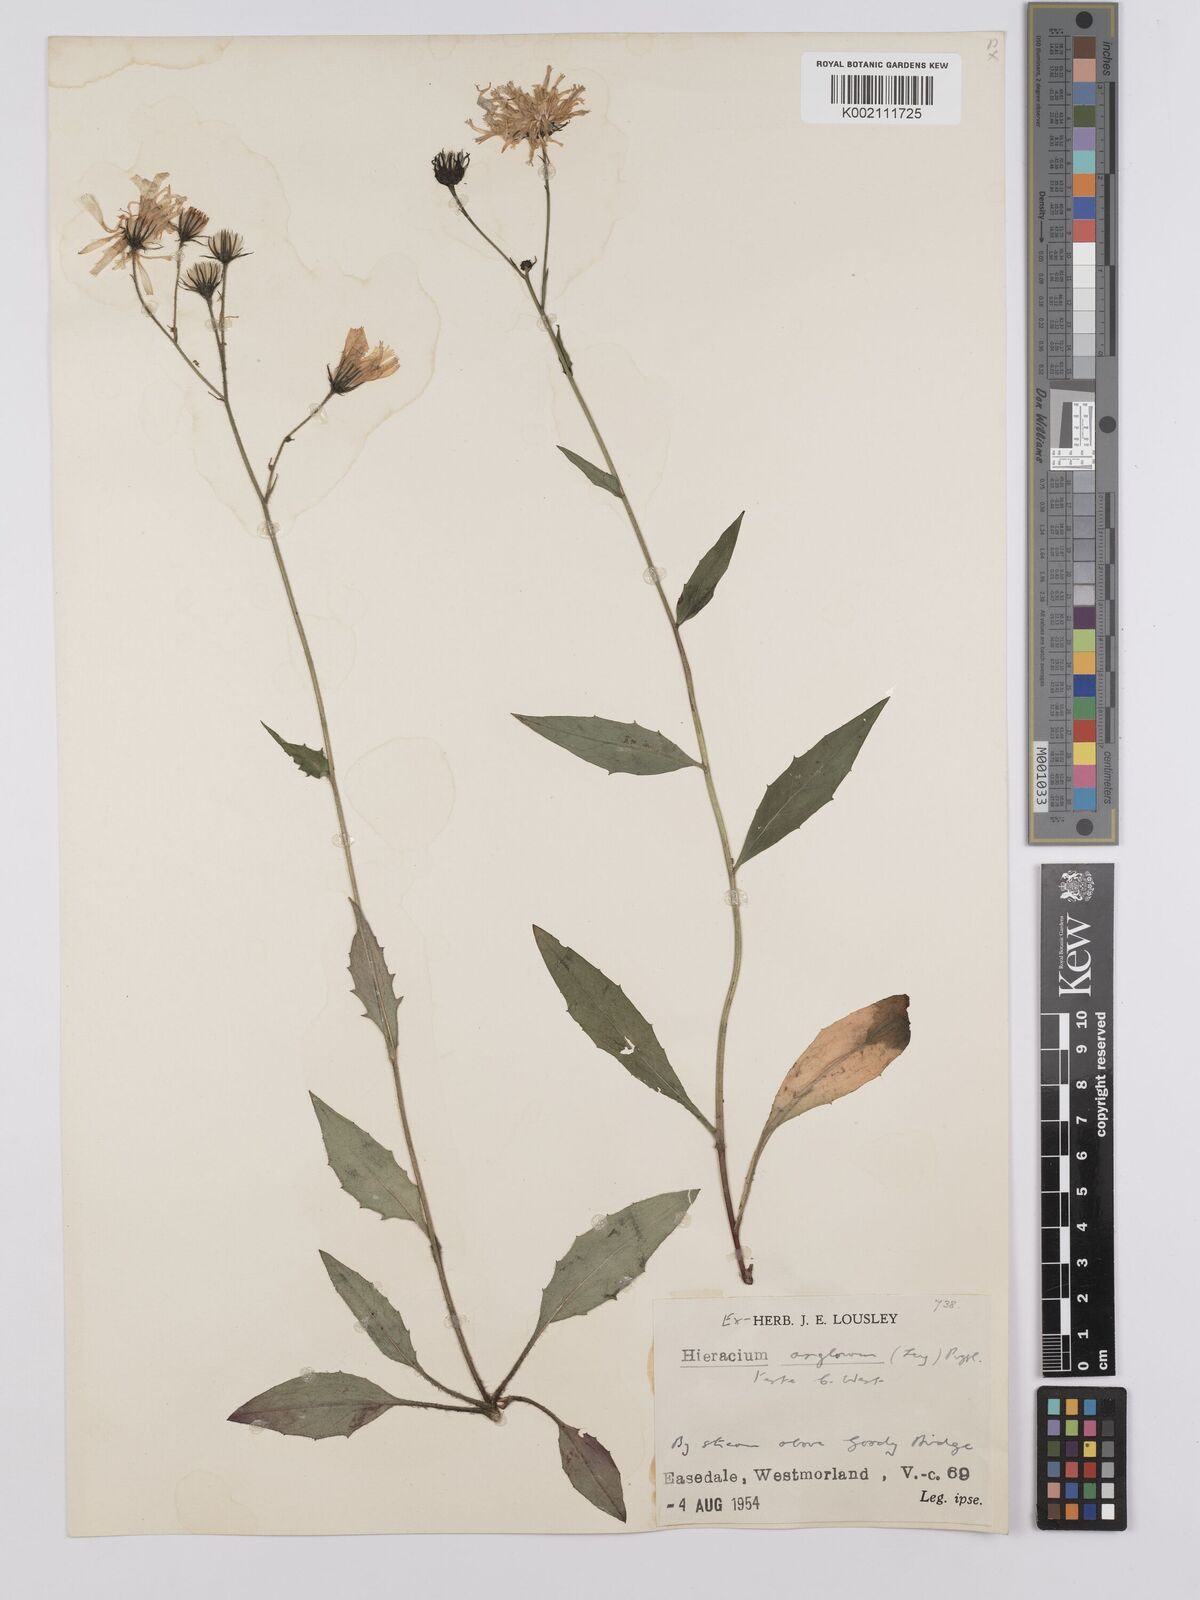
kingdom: Plantae
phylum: Tracheophyta
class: Magnoliopsida
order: Asterales
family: Asteraceae
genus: Hieracium
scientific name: Hieracium anglorum
